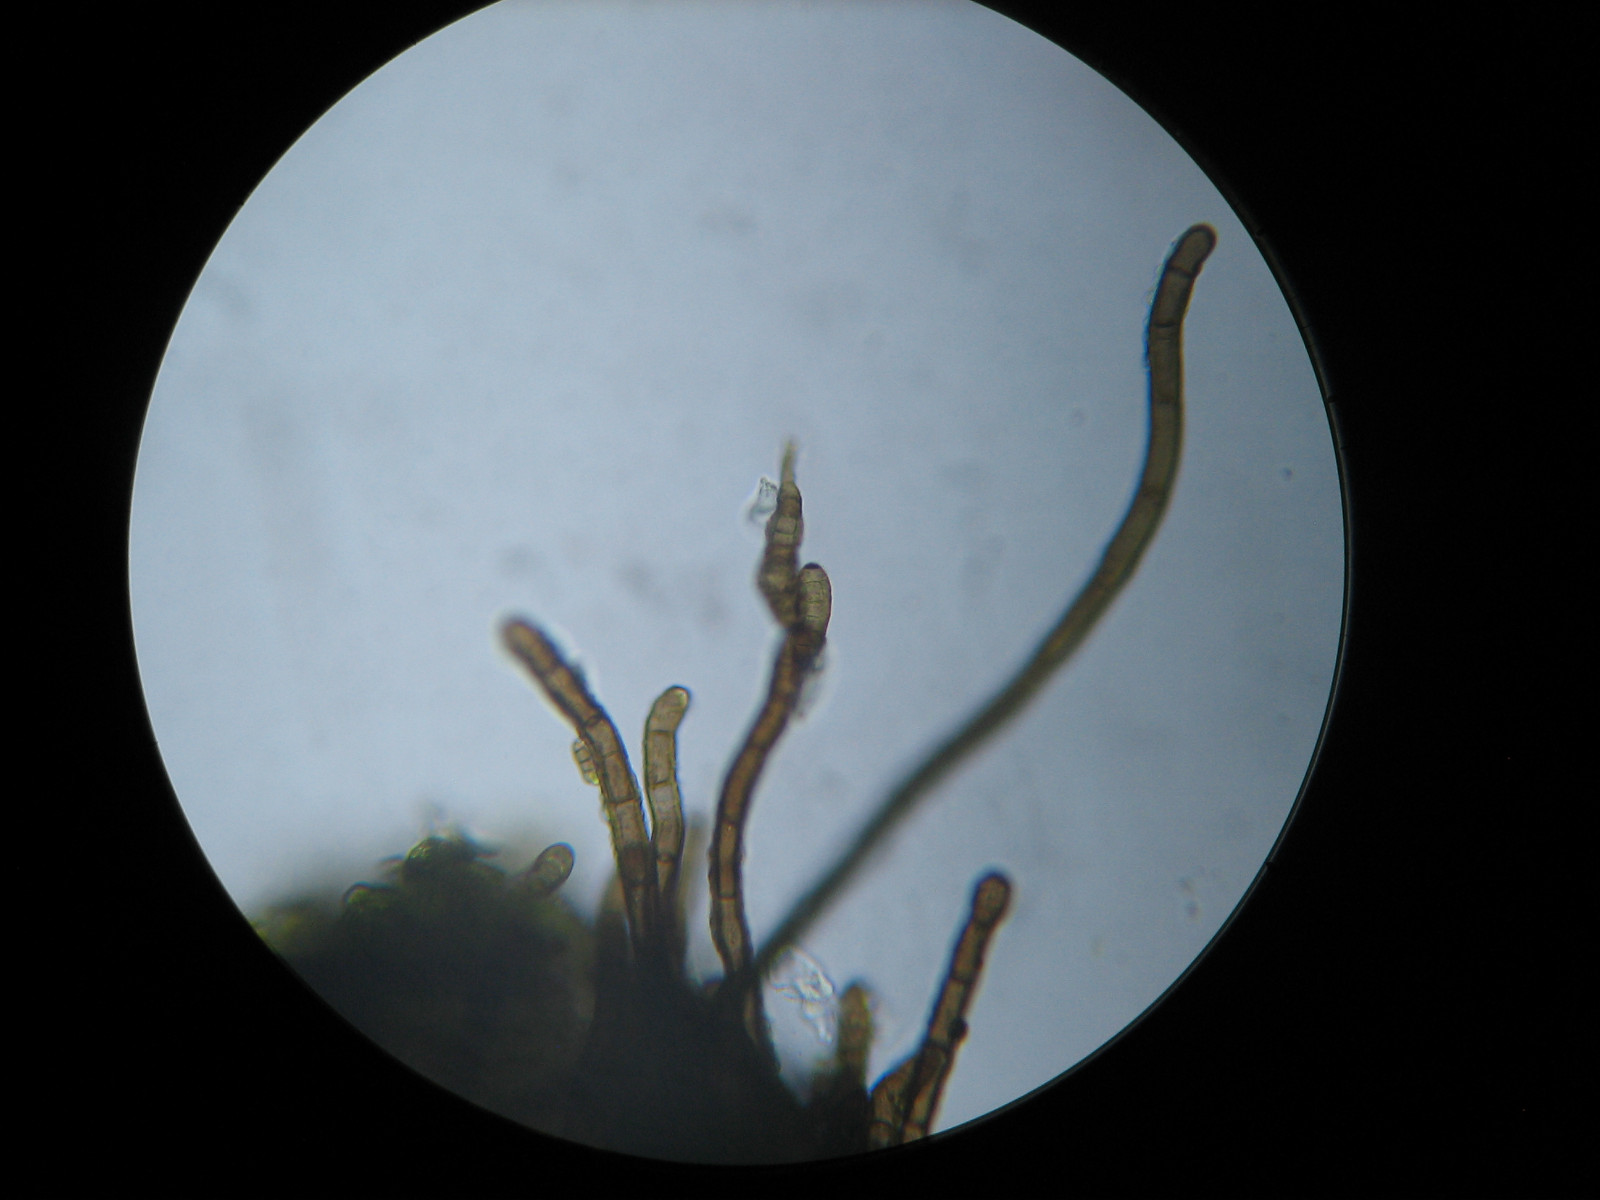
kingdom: Fungi
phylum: Ascomycota
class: Dothideomycetes
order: Pleosporales
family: Massarinaceae
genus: Helminthosporium
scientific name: Helminthosporium
